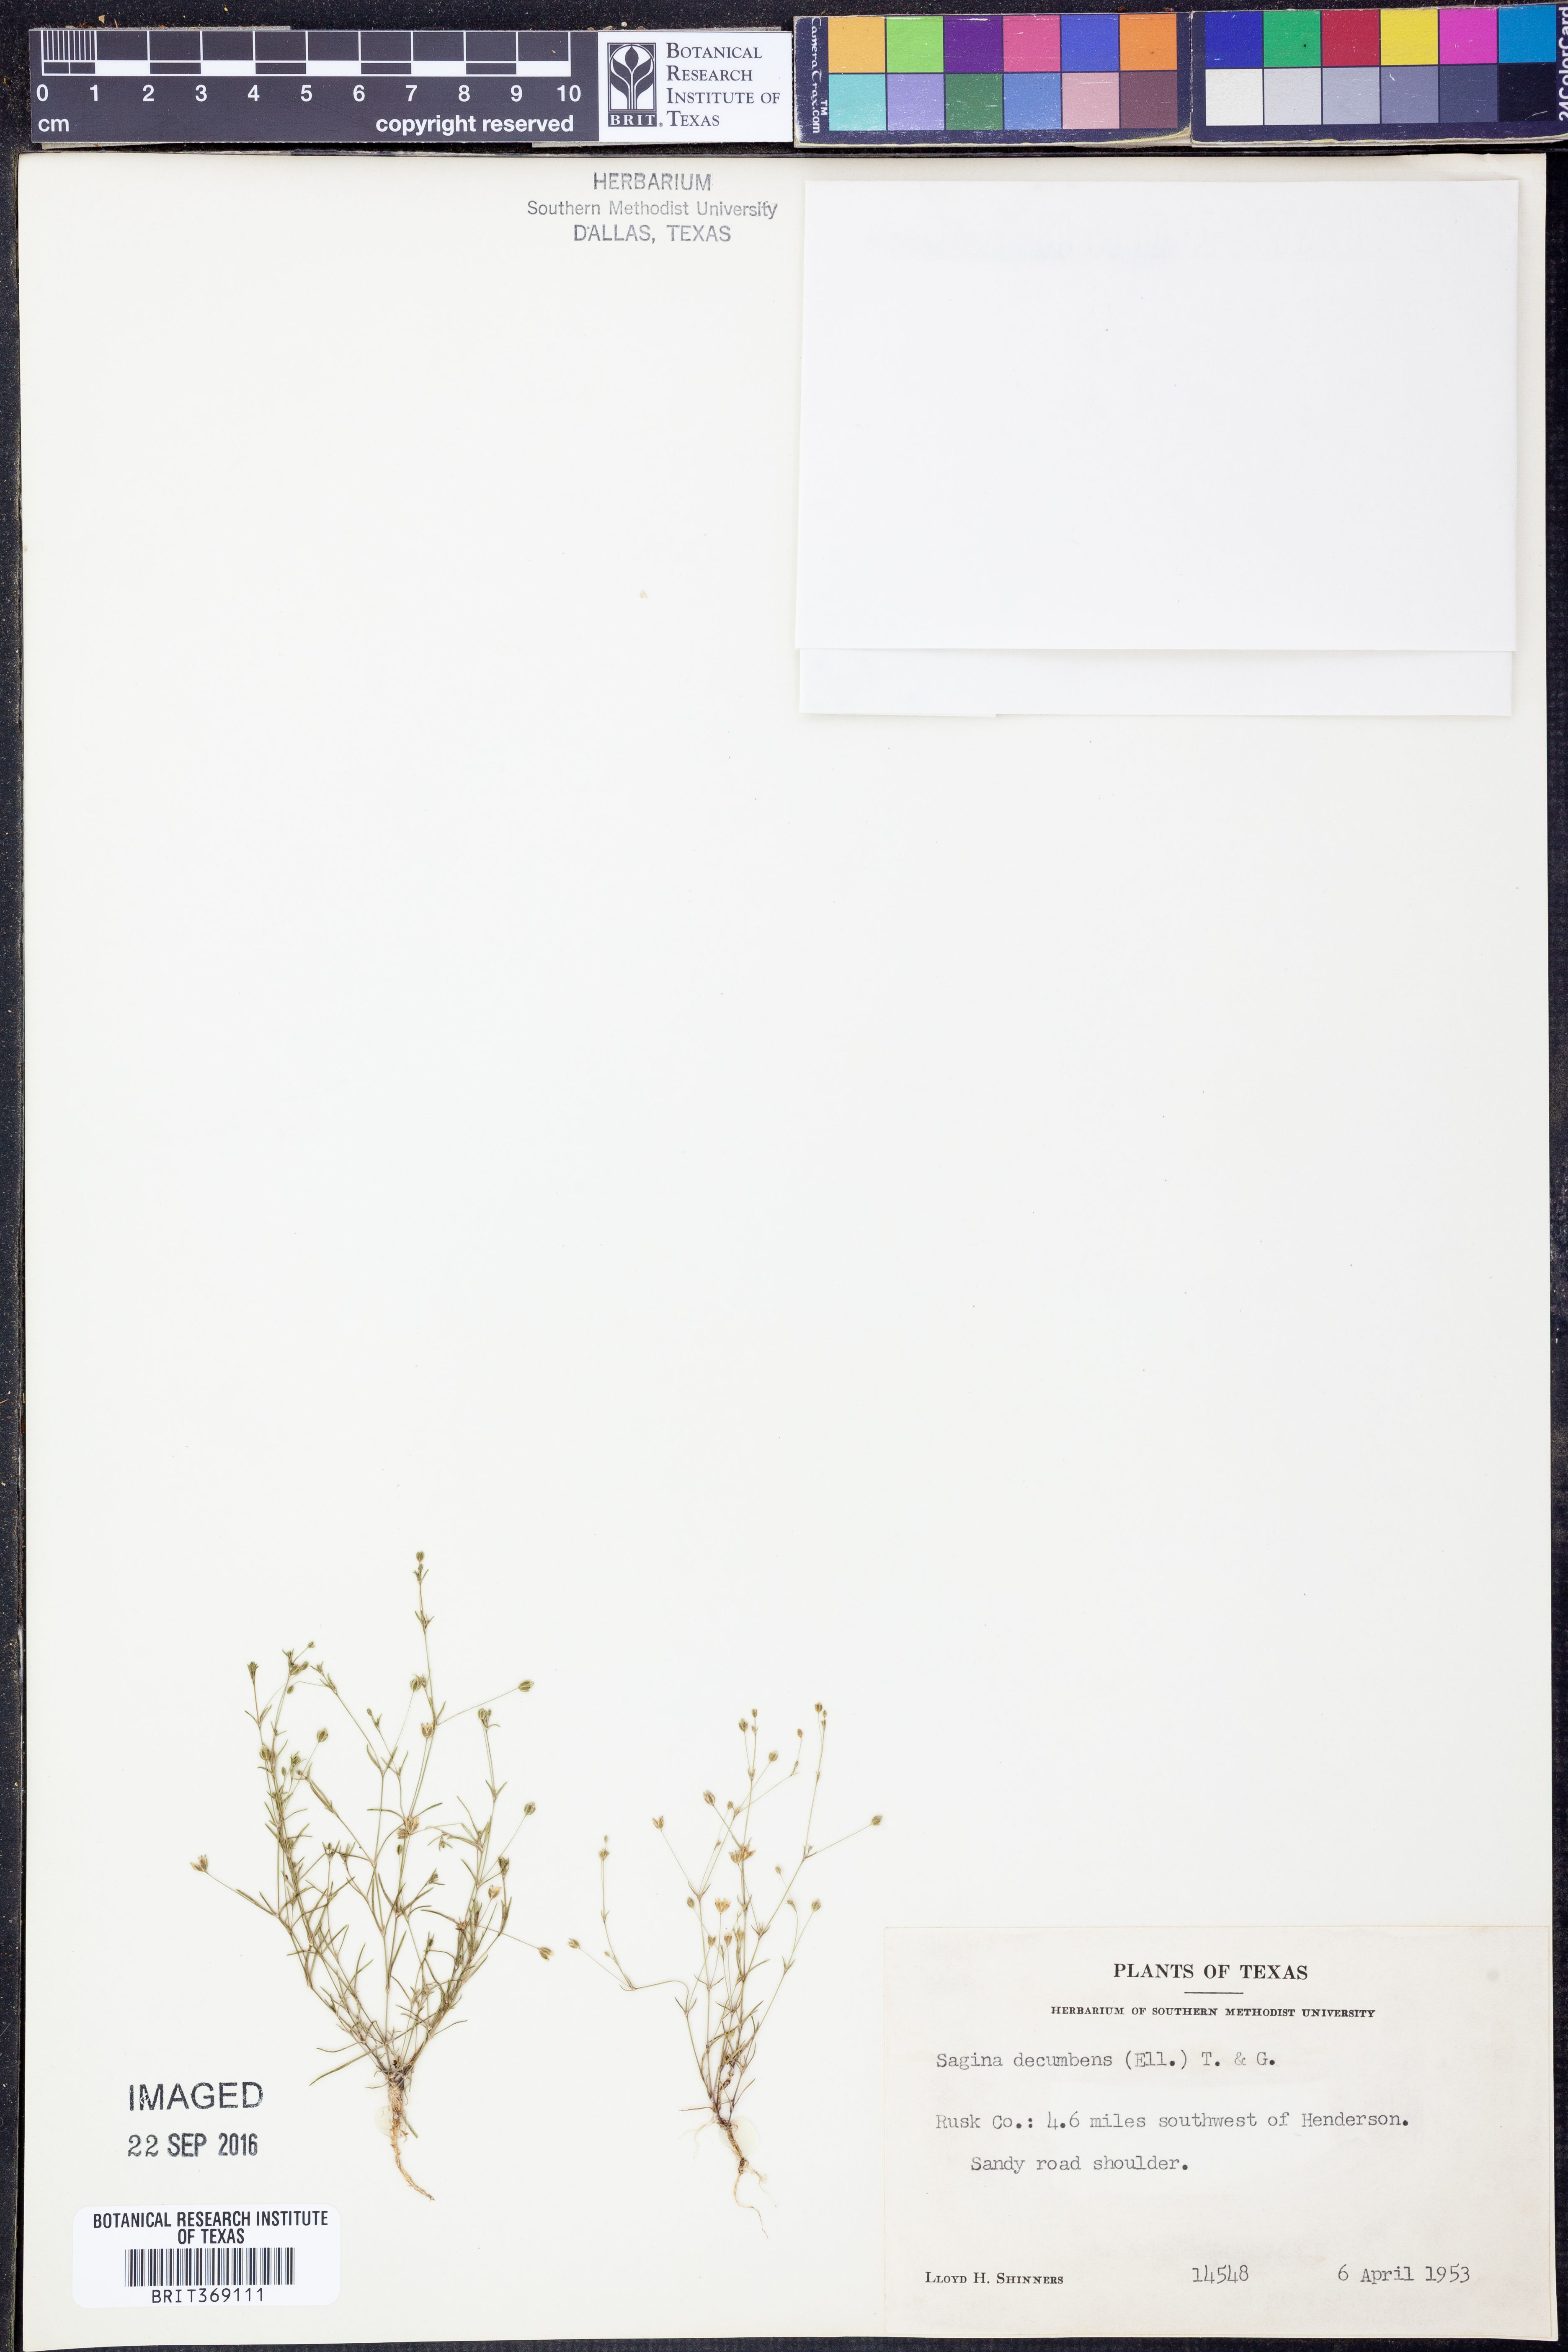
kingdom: Plantae
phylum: Tracheophyta
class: Magnoliopsida
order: Caryophyllales
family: Caryophyllaceae
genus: Sagina
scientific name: Sagina decumbens
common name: Decumbent pearlwort
